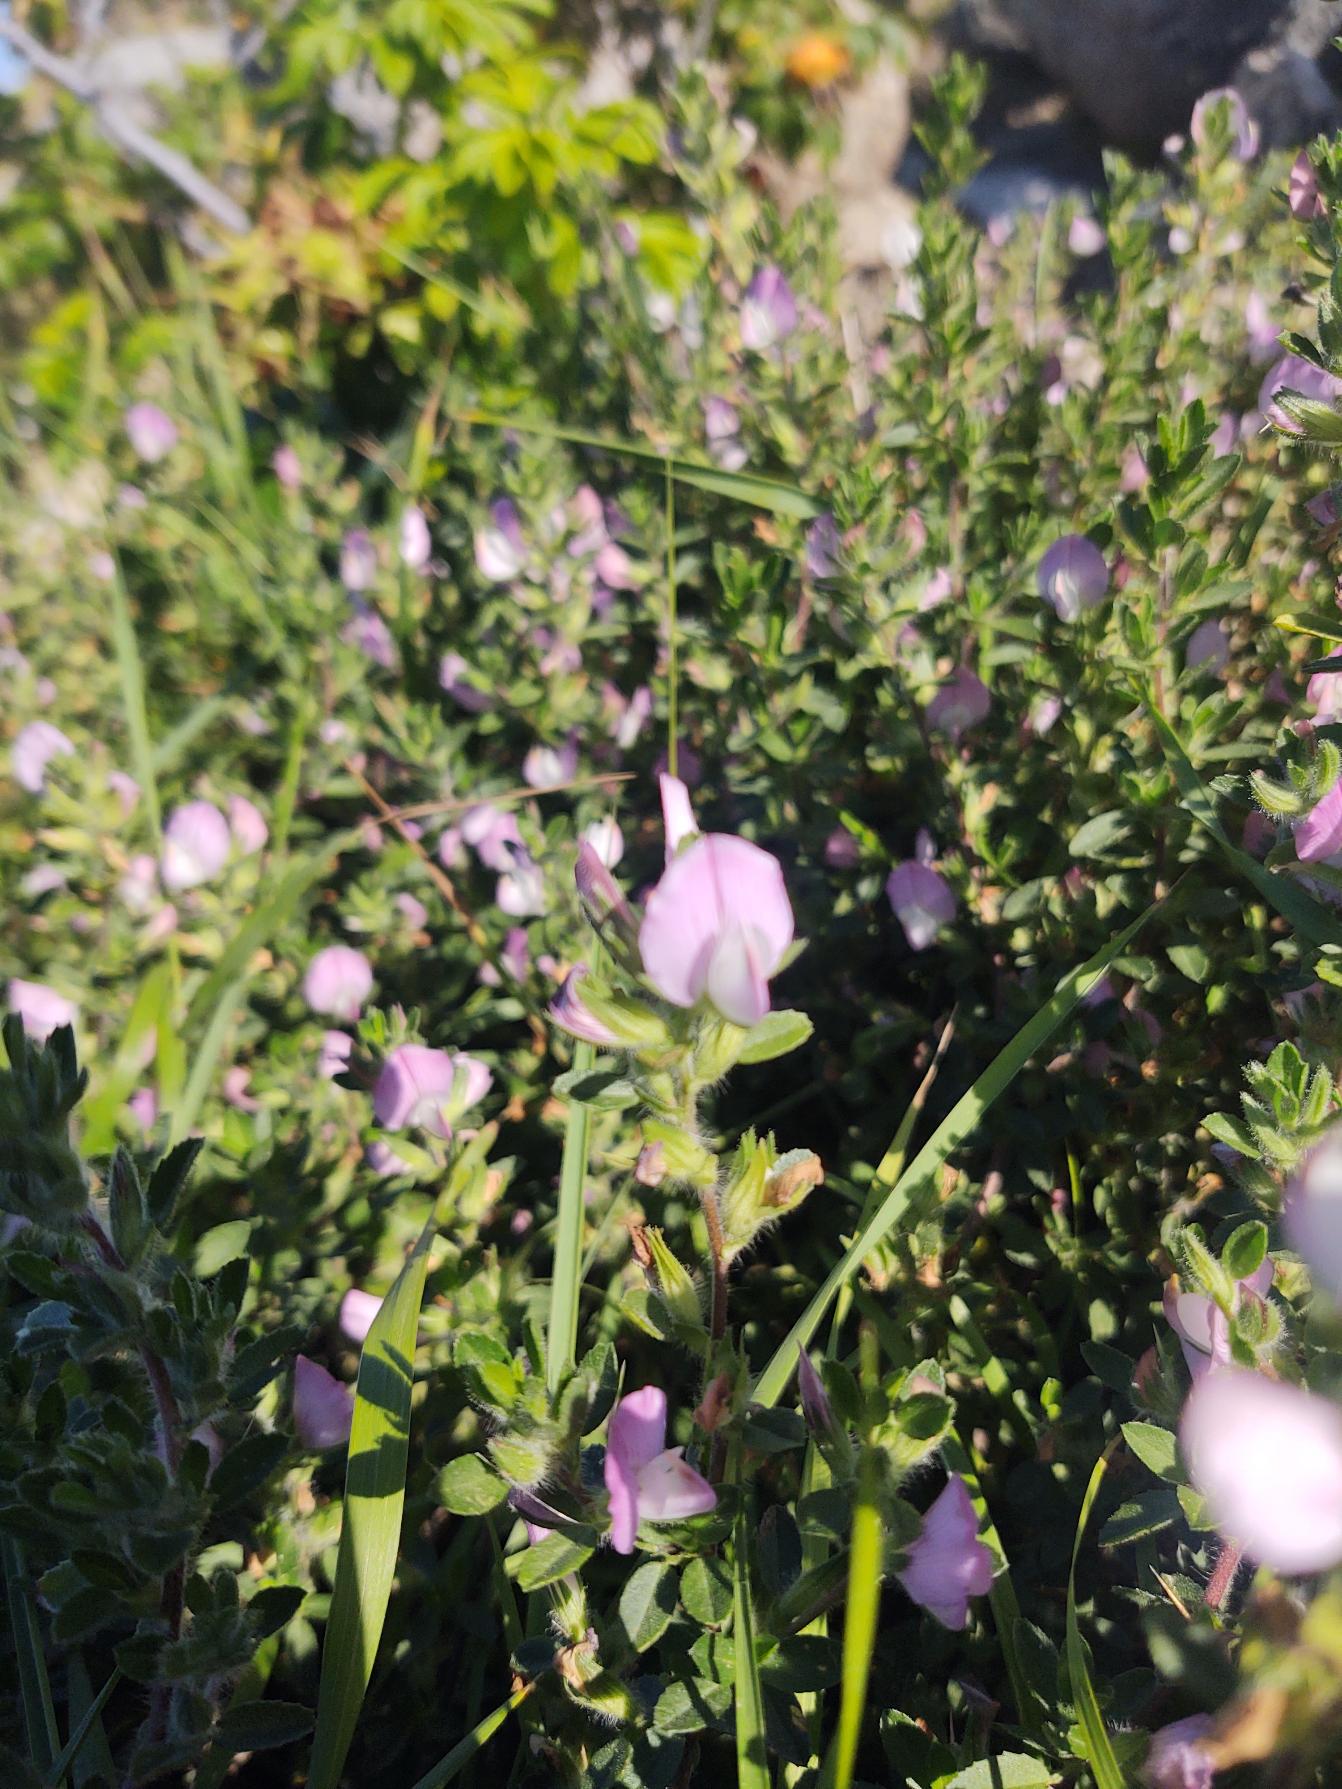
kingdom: Plantae
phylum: Tracheophyta
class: Magnoliopsida
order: Fabales
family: Fabaceae
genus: Ononis
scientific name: Ononis spinosa
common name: Mark-krageklo
